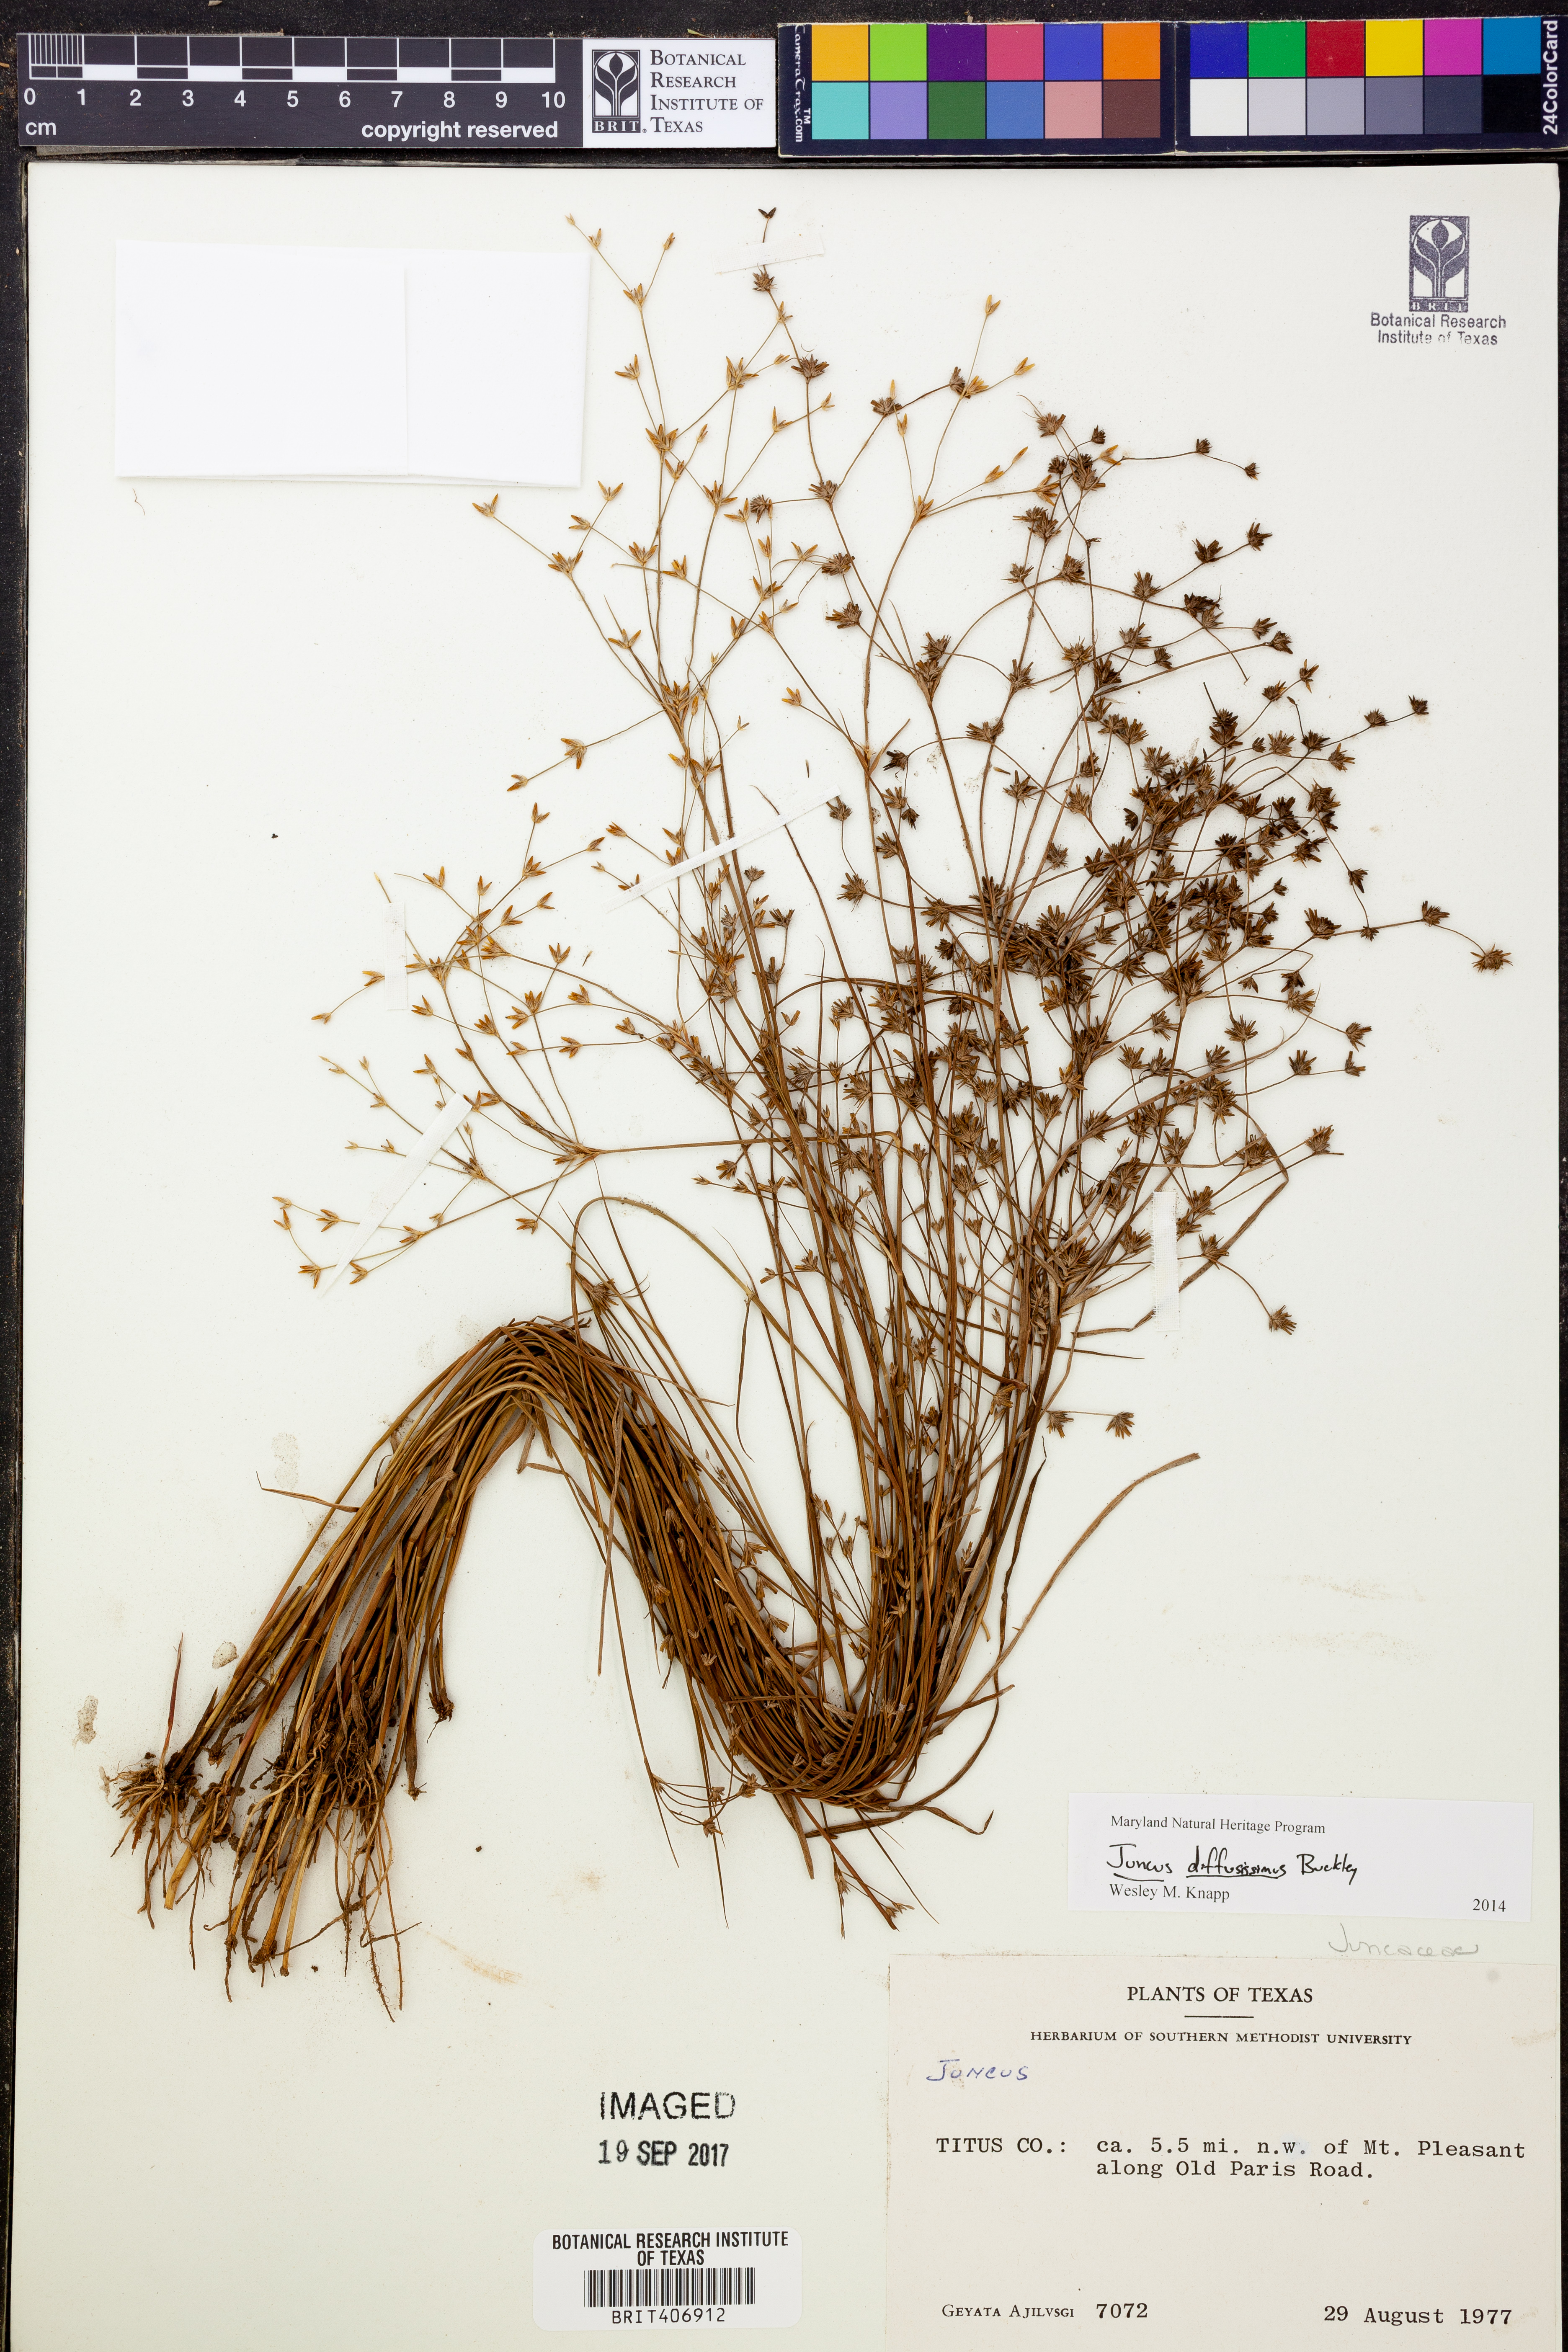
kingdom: Plantae
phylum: Tracheophyta
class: Liliopsida
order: Poales
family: Juncaceae
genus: Juncus
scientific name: Juncus diffusissimus
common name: Slimpod rush
